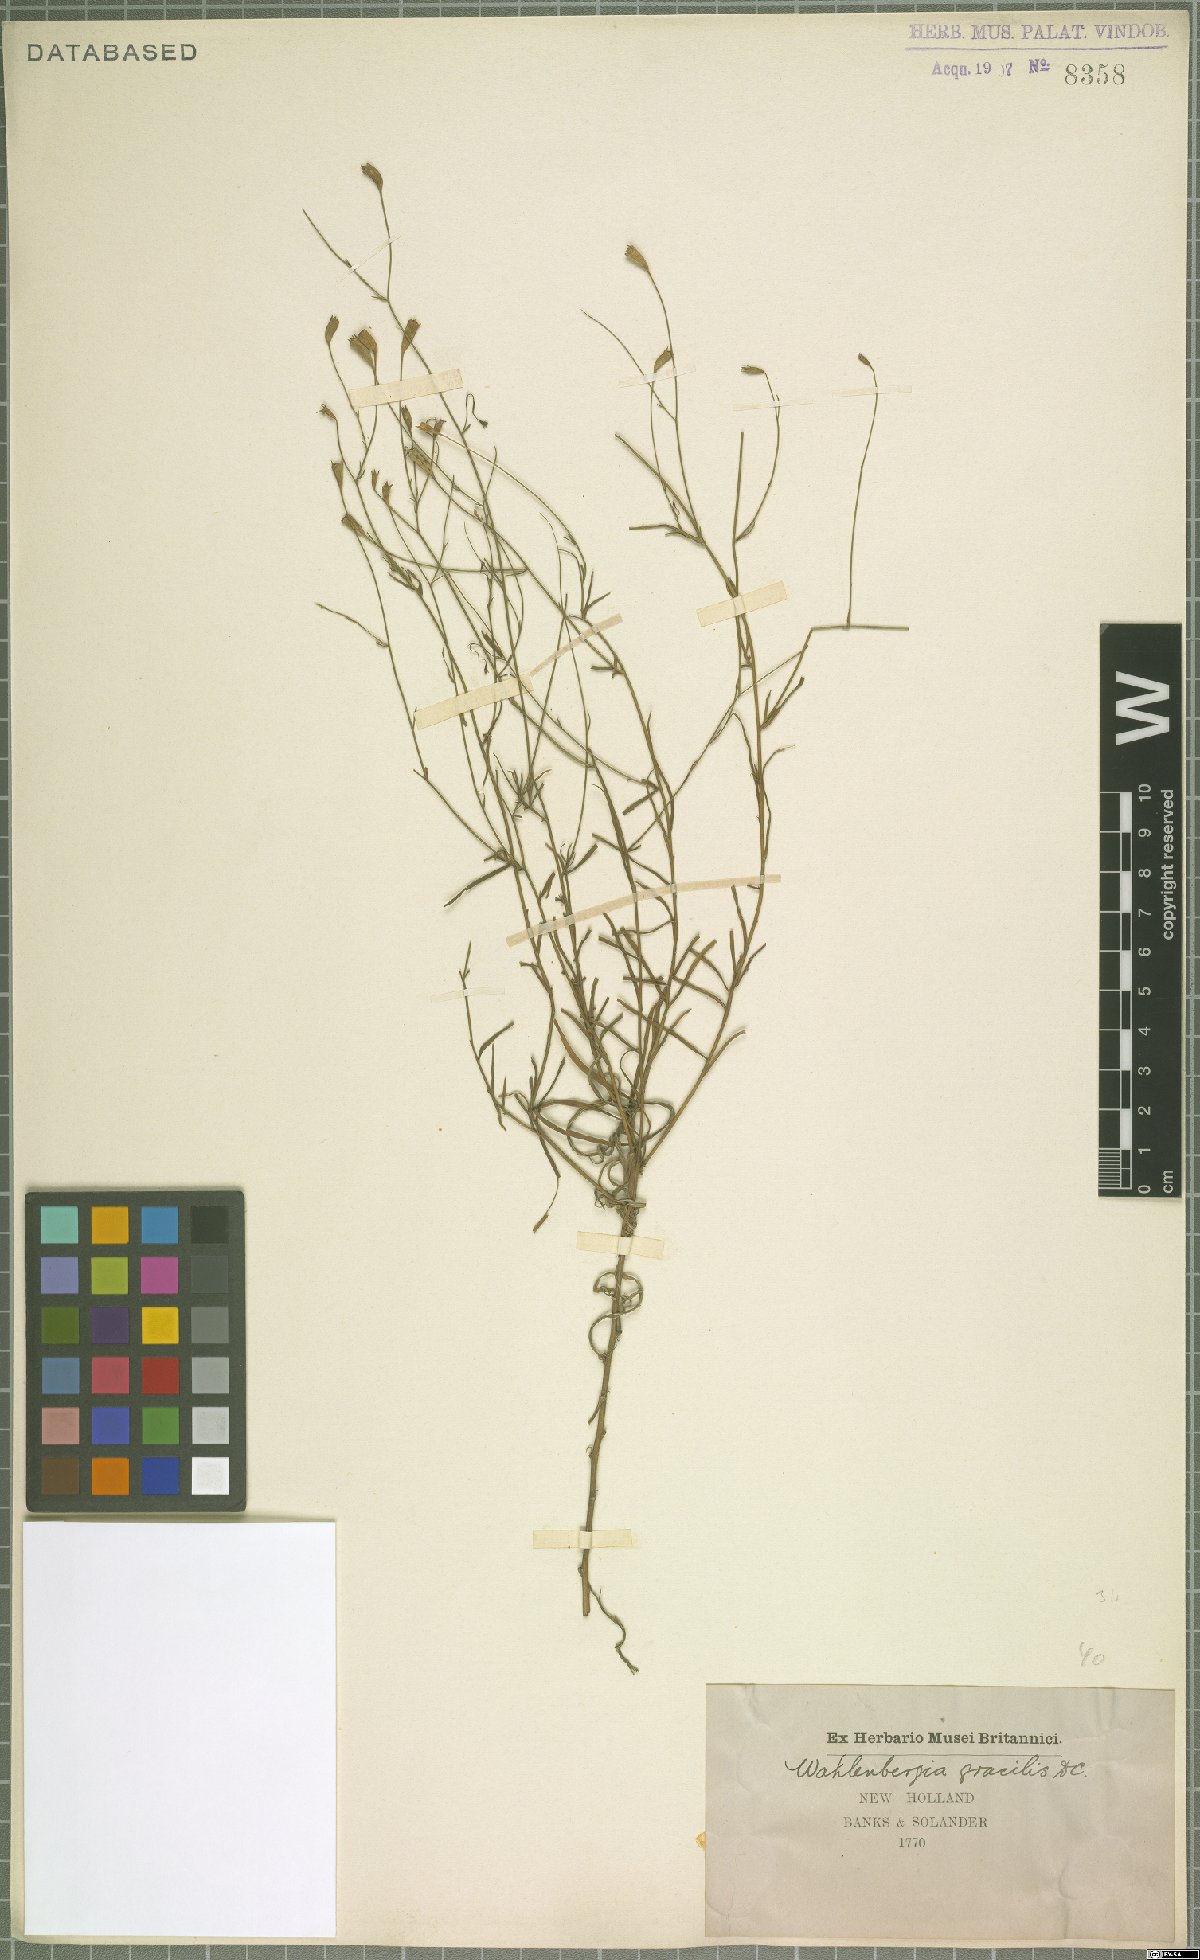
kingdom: Plantae
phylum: Tracheophyta
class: Magnoliopsida
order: Asterales
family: Campanulaceae
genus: Wahlenbergia
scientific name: Wahlenbergia gracilis
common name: Harebell
